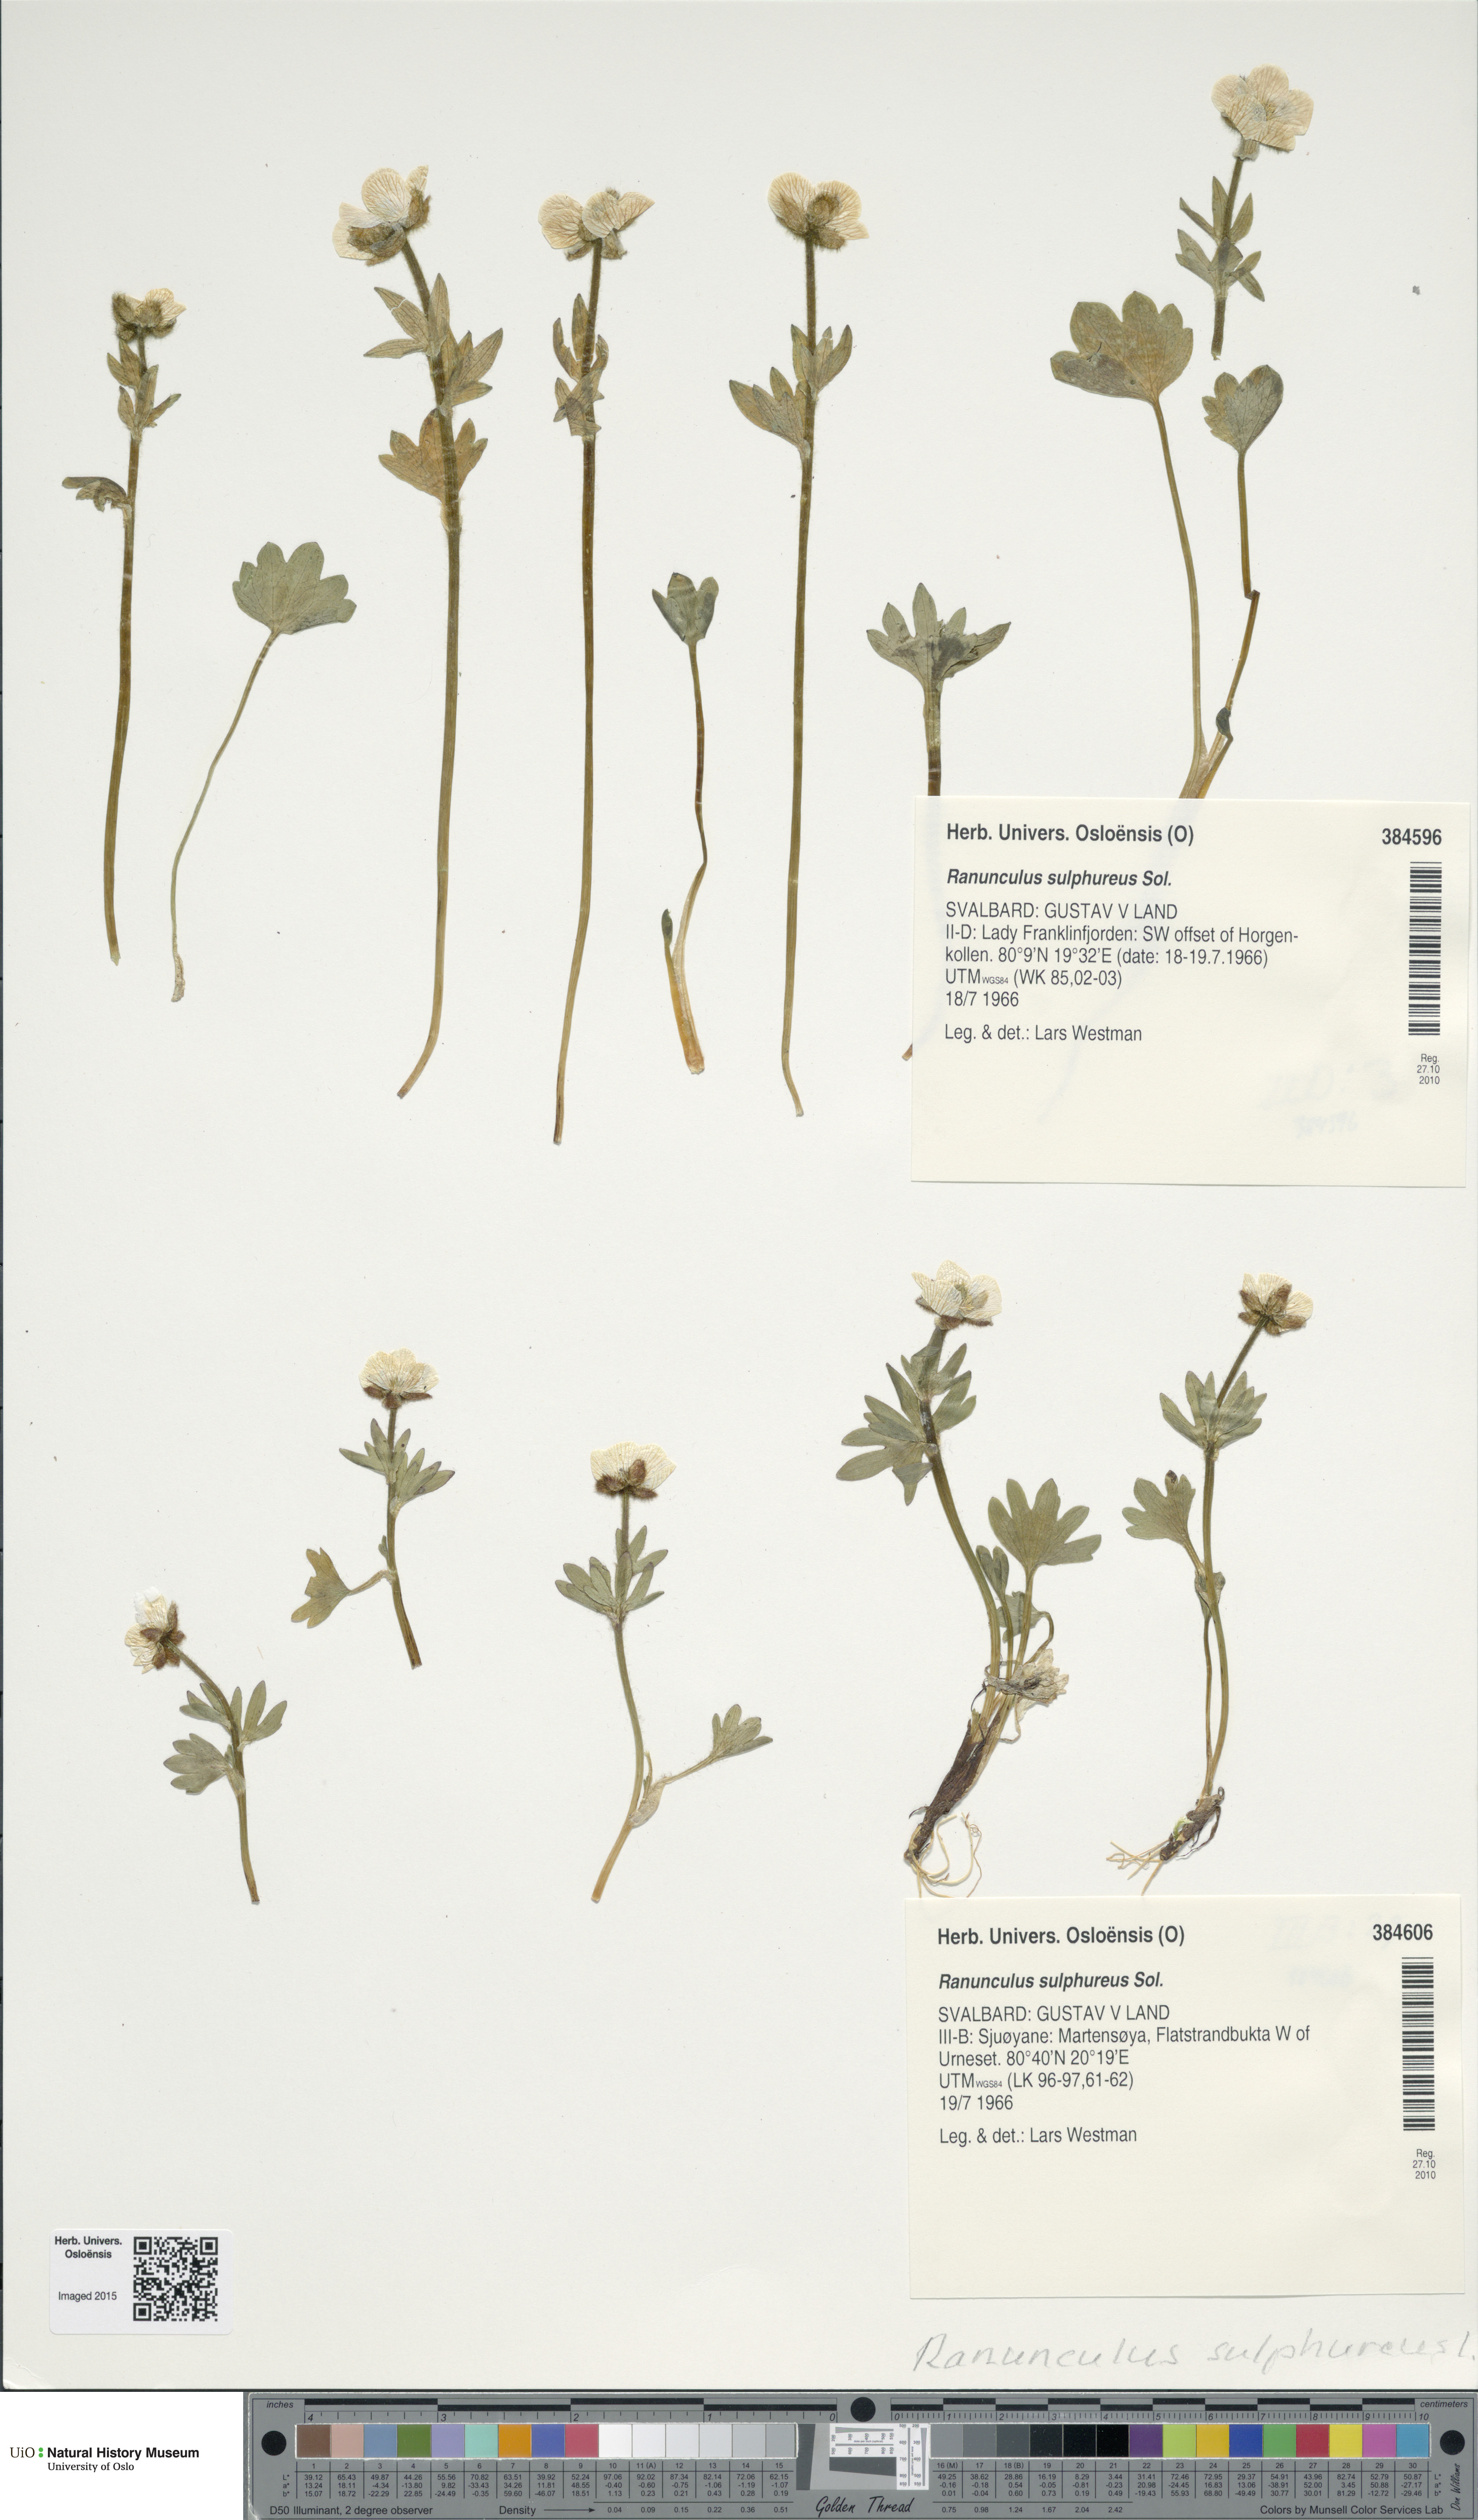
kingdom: Plantae
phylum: Tracheophyta
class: Magnoliopsida
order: Ranunculales
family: Ranunculaceae
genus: Ranunculus
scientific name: Ranunculus sulphureus
